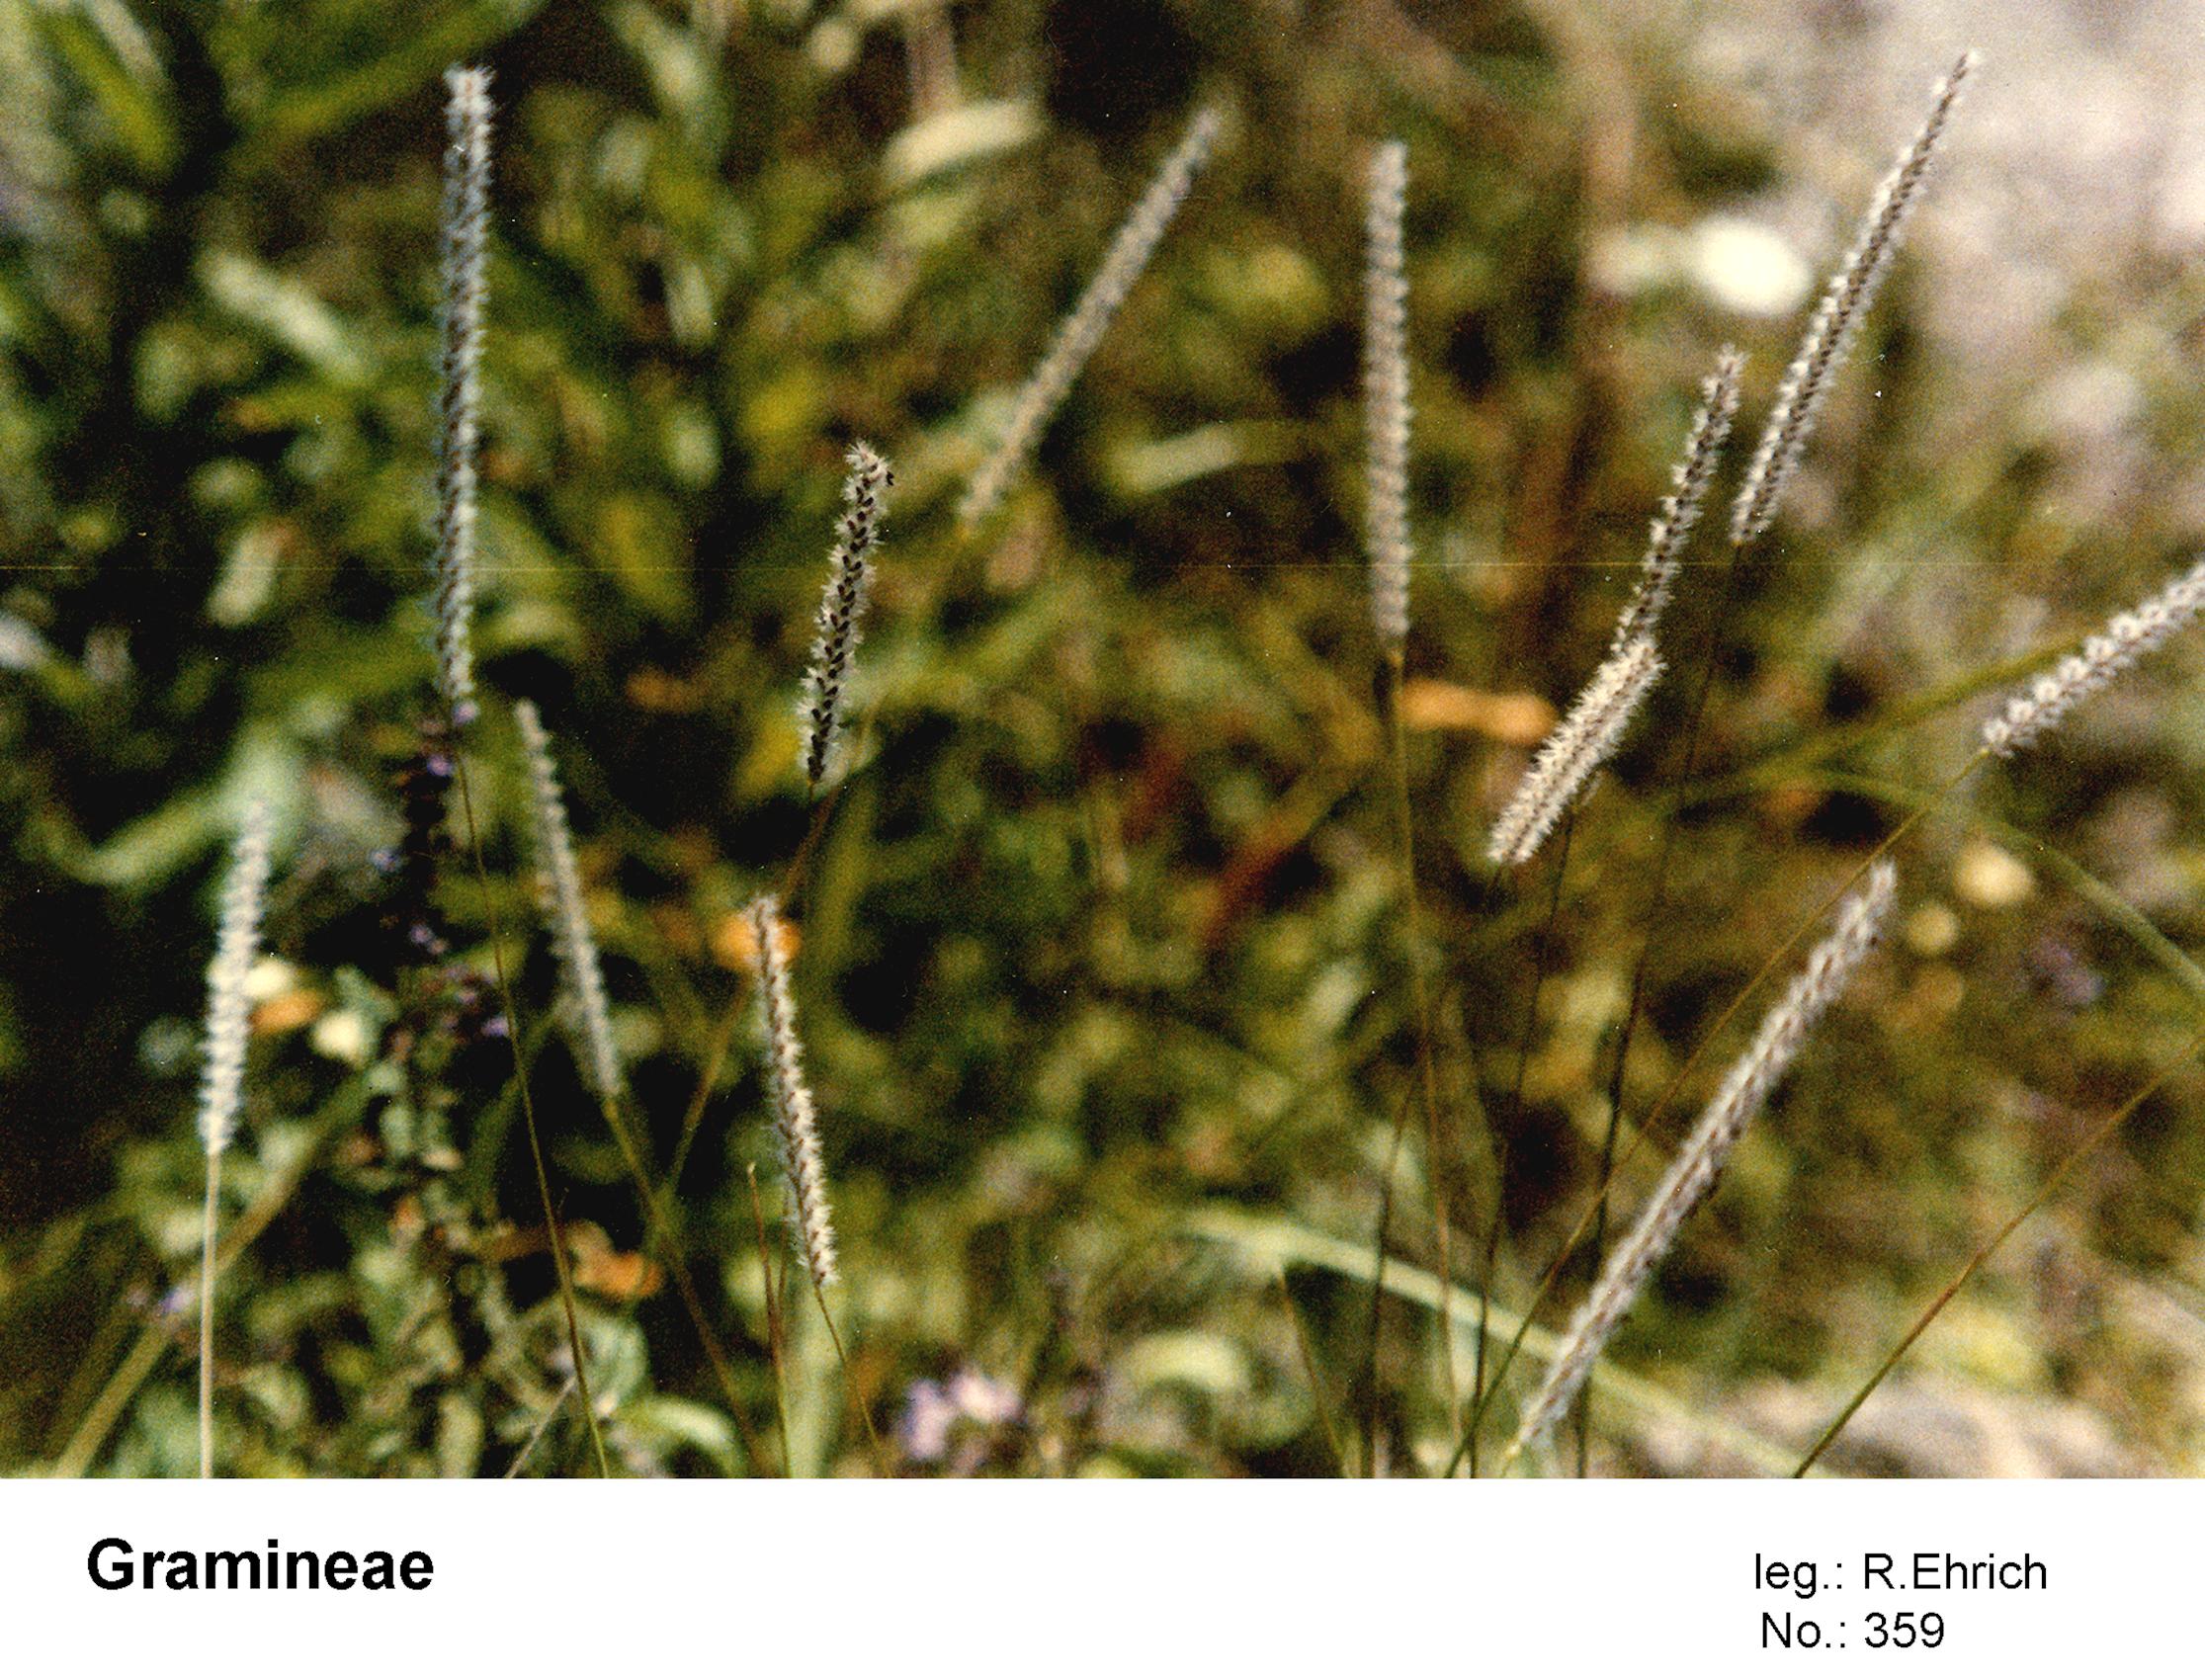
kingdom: Plantae
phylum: Tracheophyta
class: Liliopsida
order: Poales
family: Poaceae
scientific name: Poaceae
